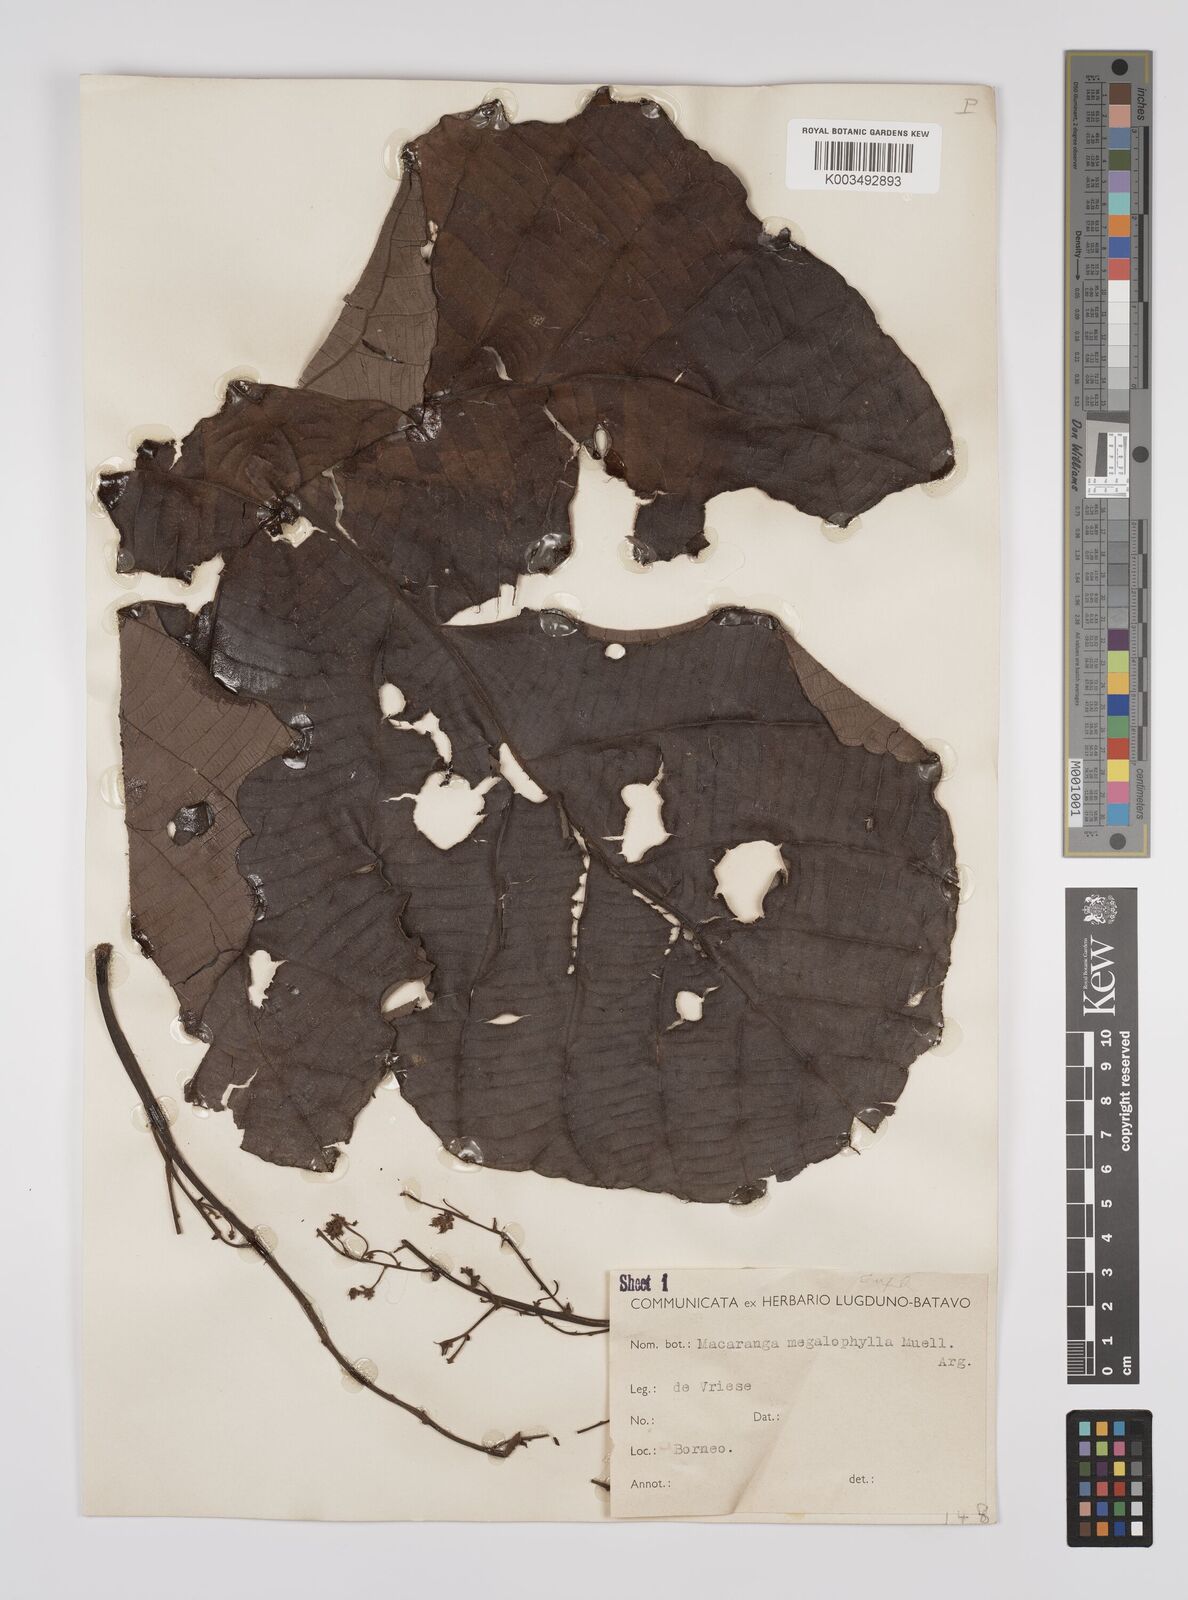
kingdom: Plantae
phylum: Tracheophyta
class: Magnoliopsida
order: Malpighiales
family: Euphorbiaceae
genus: Macaranga
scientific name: Macaranga gigantea
